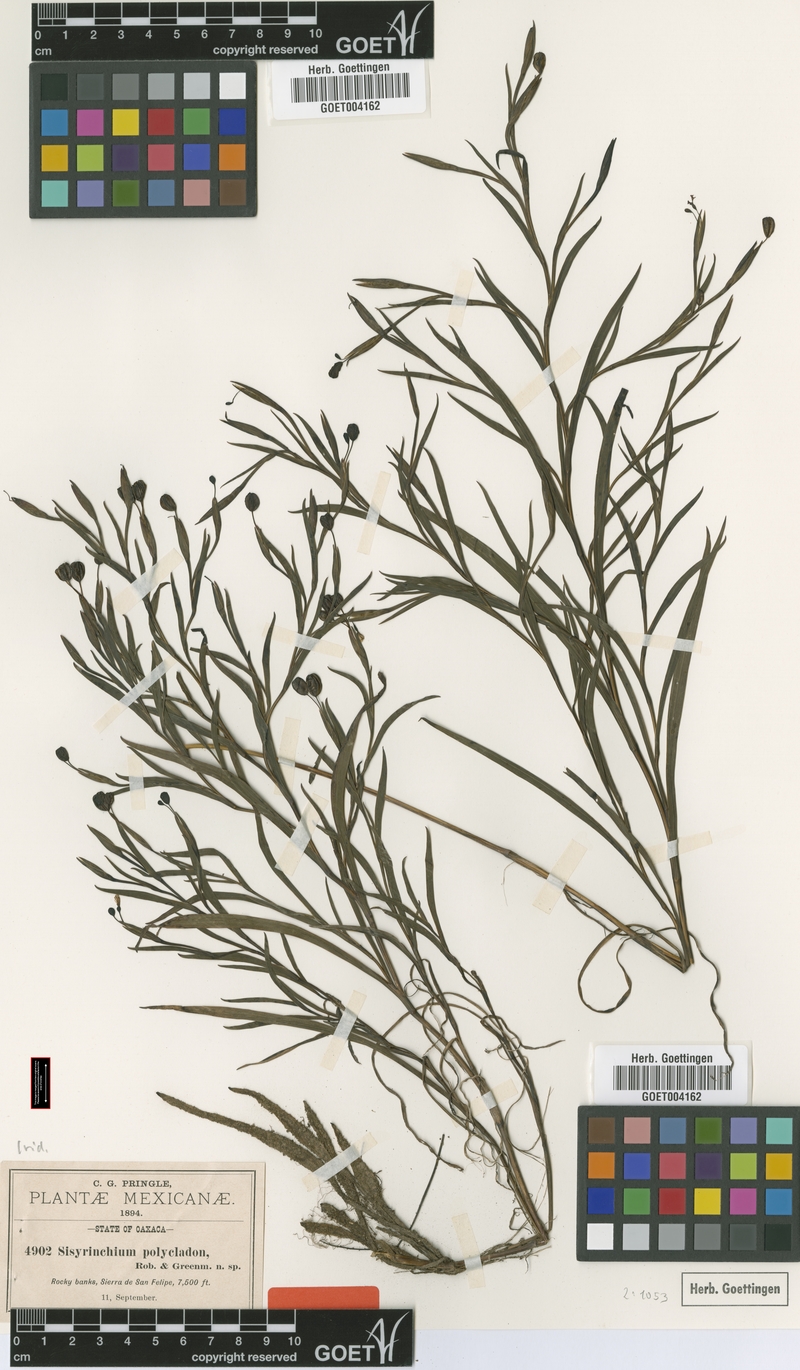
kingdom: Plantae
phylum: Tracheophyta
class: Liliopsida
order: Asparagales
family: Iridaceae
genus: Sisyrinchium
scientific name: Sisyrinchium angustissimum
